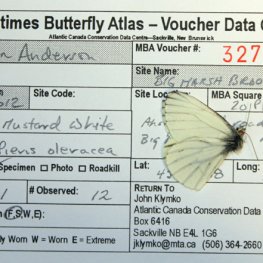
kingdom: Animalia
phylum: Arthropoda
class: Insecta
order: Lepidoptera
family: Pieridae
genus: Pieris
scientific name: Pieris oleracea
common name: Mustard White
